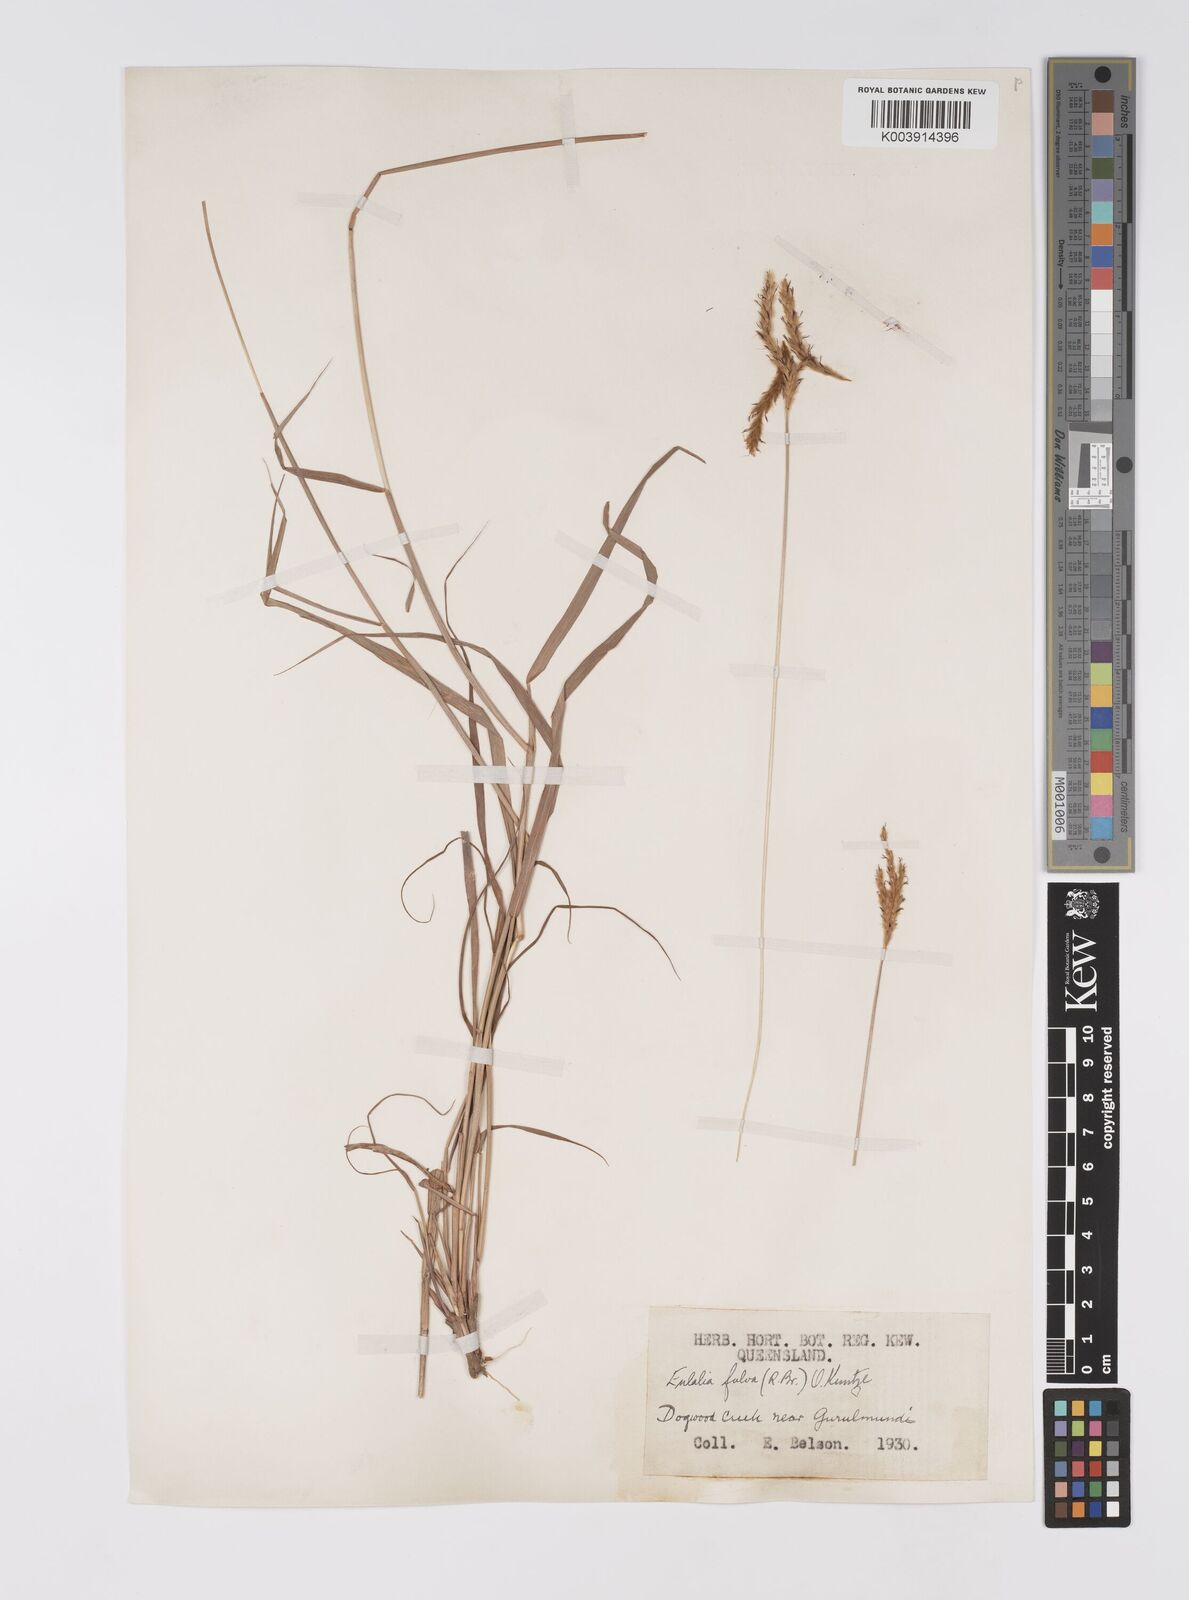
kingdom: Plantae
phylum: Tracheophyta
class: Liliopsida
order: Poales
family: Poaceae
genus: Eulalia
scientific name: Eulalia aurea
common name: Silky browntop
